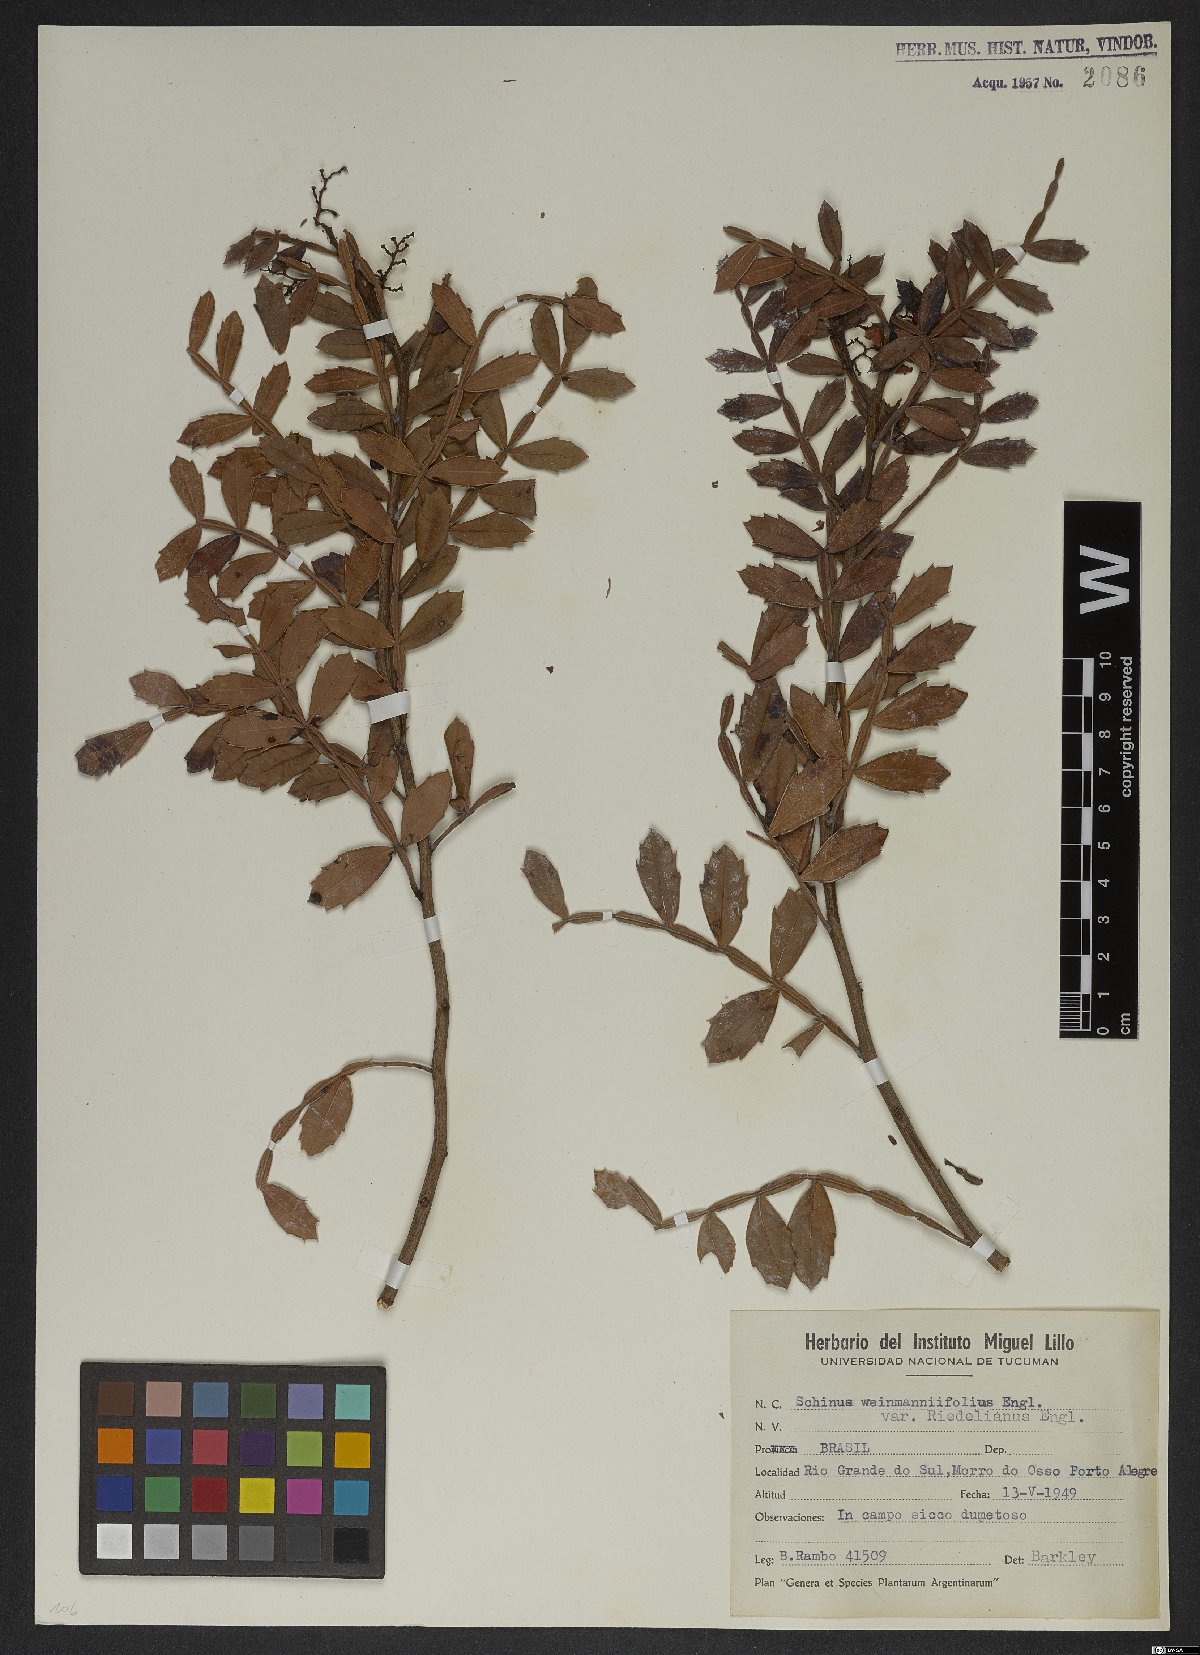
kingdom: Plantae
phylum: Tracheophyta
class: Magnoliopsida
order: Sapindales
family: Anacardiaceae
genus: Schinus
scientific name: Schinus weinmanniifolia
